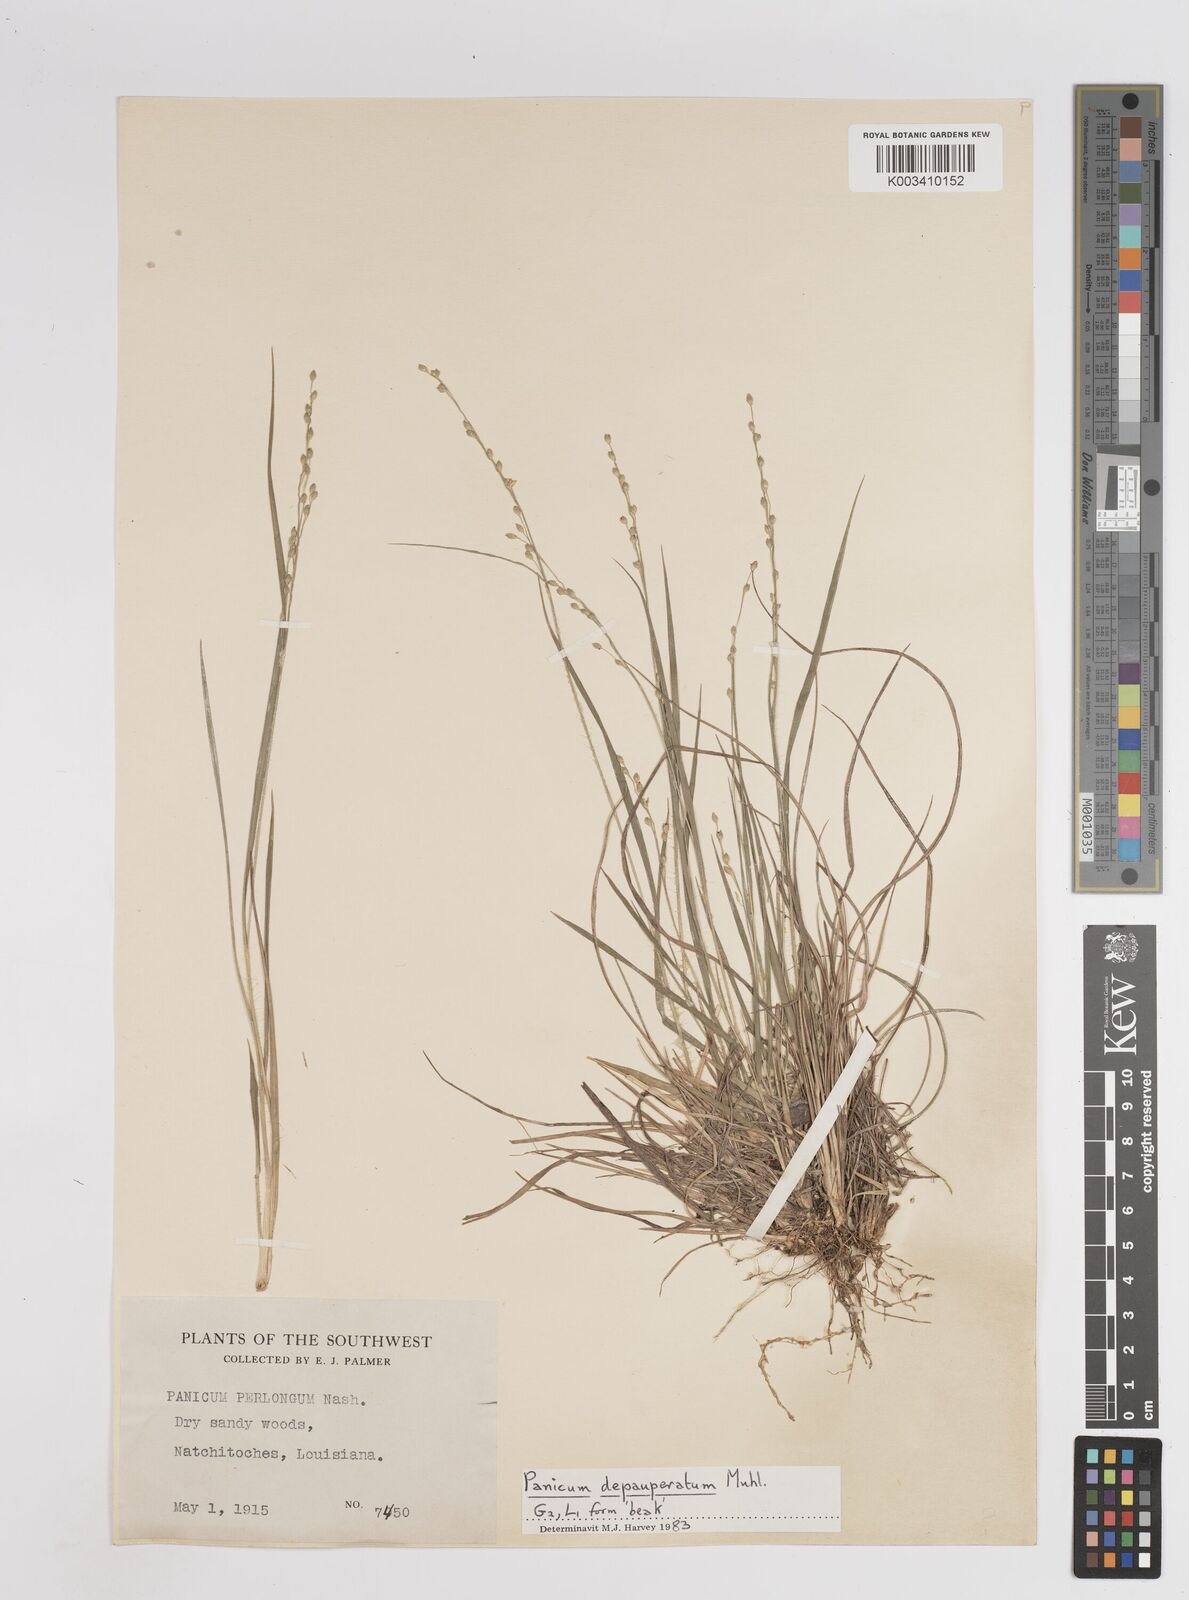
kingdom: Plantae
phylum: Tracheophyta
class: Liliopsida
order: Poales
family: Poaceae
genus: Dichanthelium
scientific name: Dichanthelium depauperatum
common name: Depauperate panicgrass
